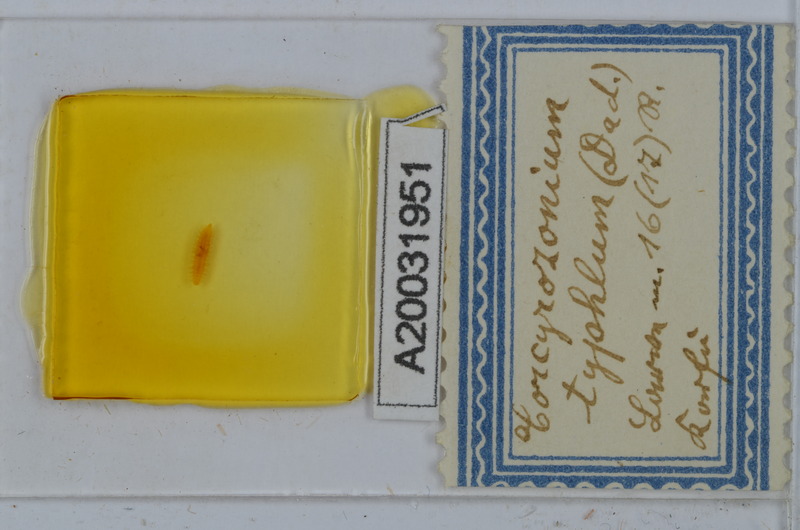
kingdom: Animalia
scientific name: Animalia
